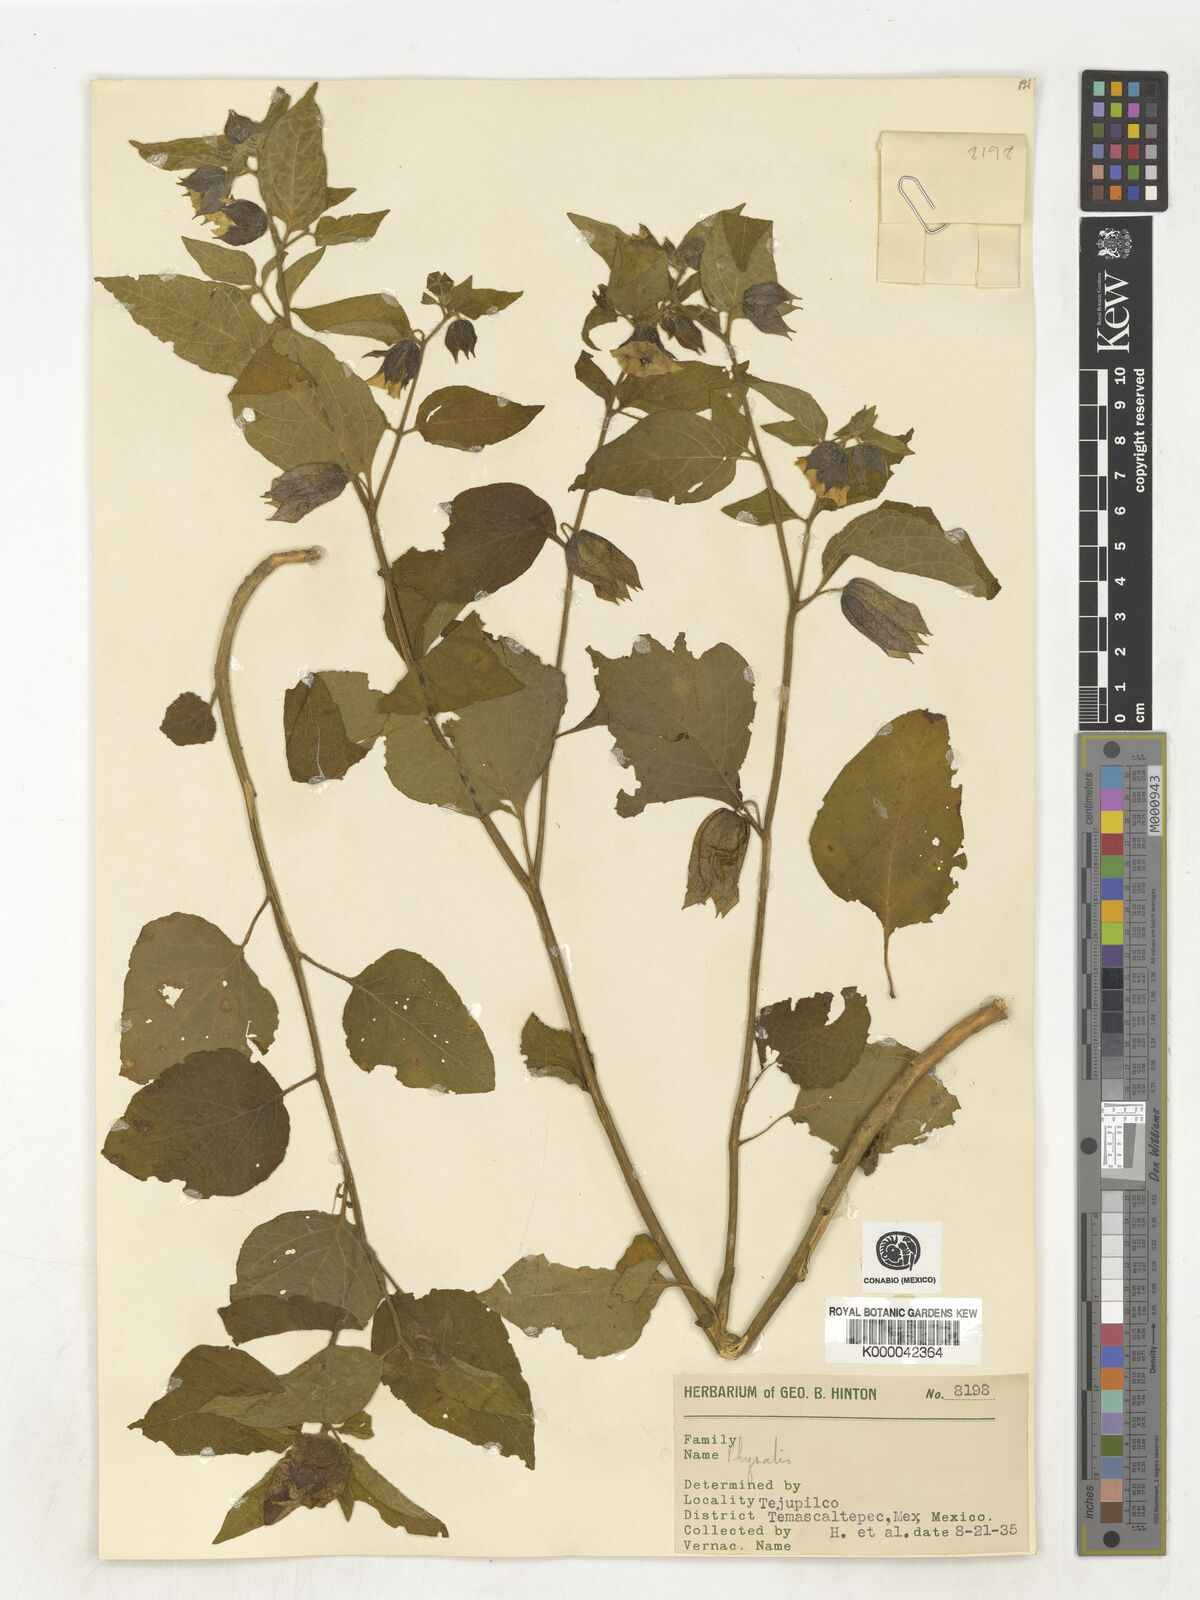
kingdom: Plantae
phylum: Tracheophyta
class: Magnoliopsida
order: Solanales
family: Solanaceae
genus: Physalis
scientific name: Physalis
